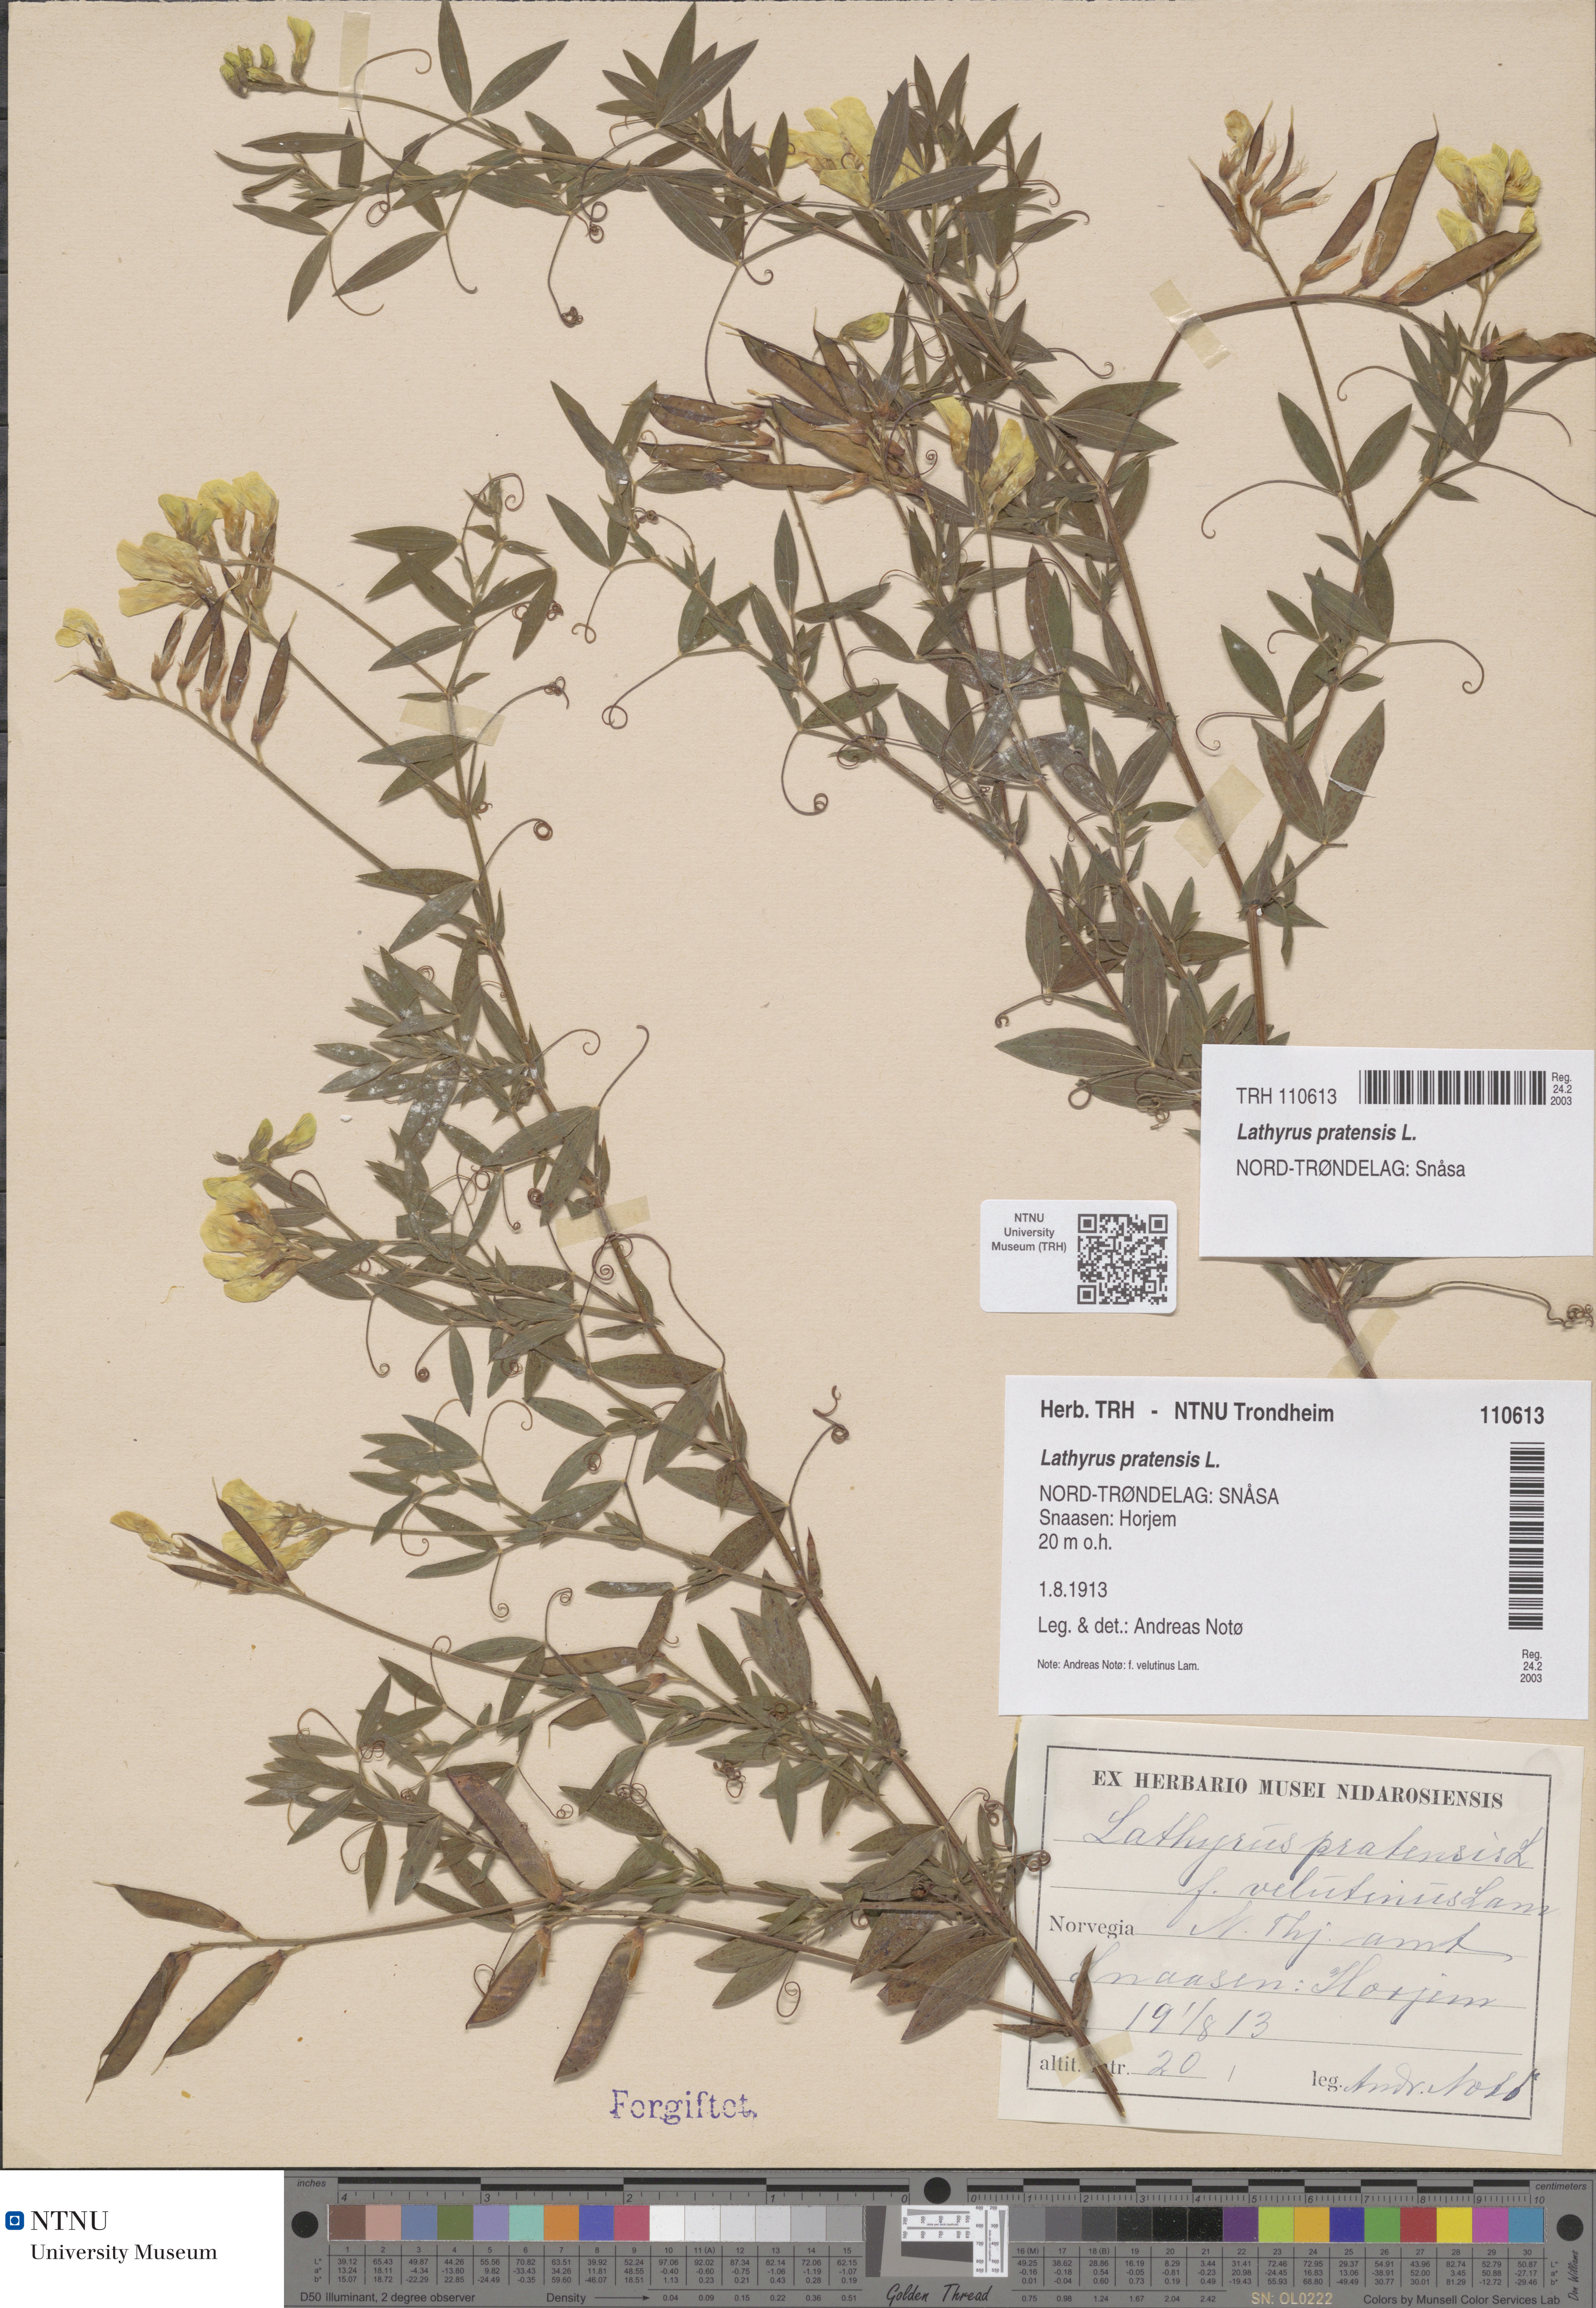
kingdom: Plantae
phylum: Tracheophyta
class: Magnoliopsida
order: Fabales
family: Fabaceae
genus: Lathyrus
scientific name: Lathyrus pratensis
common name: Meadow vetchling
